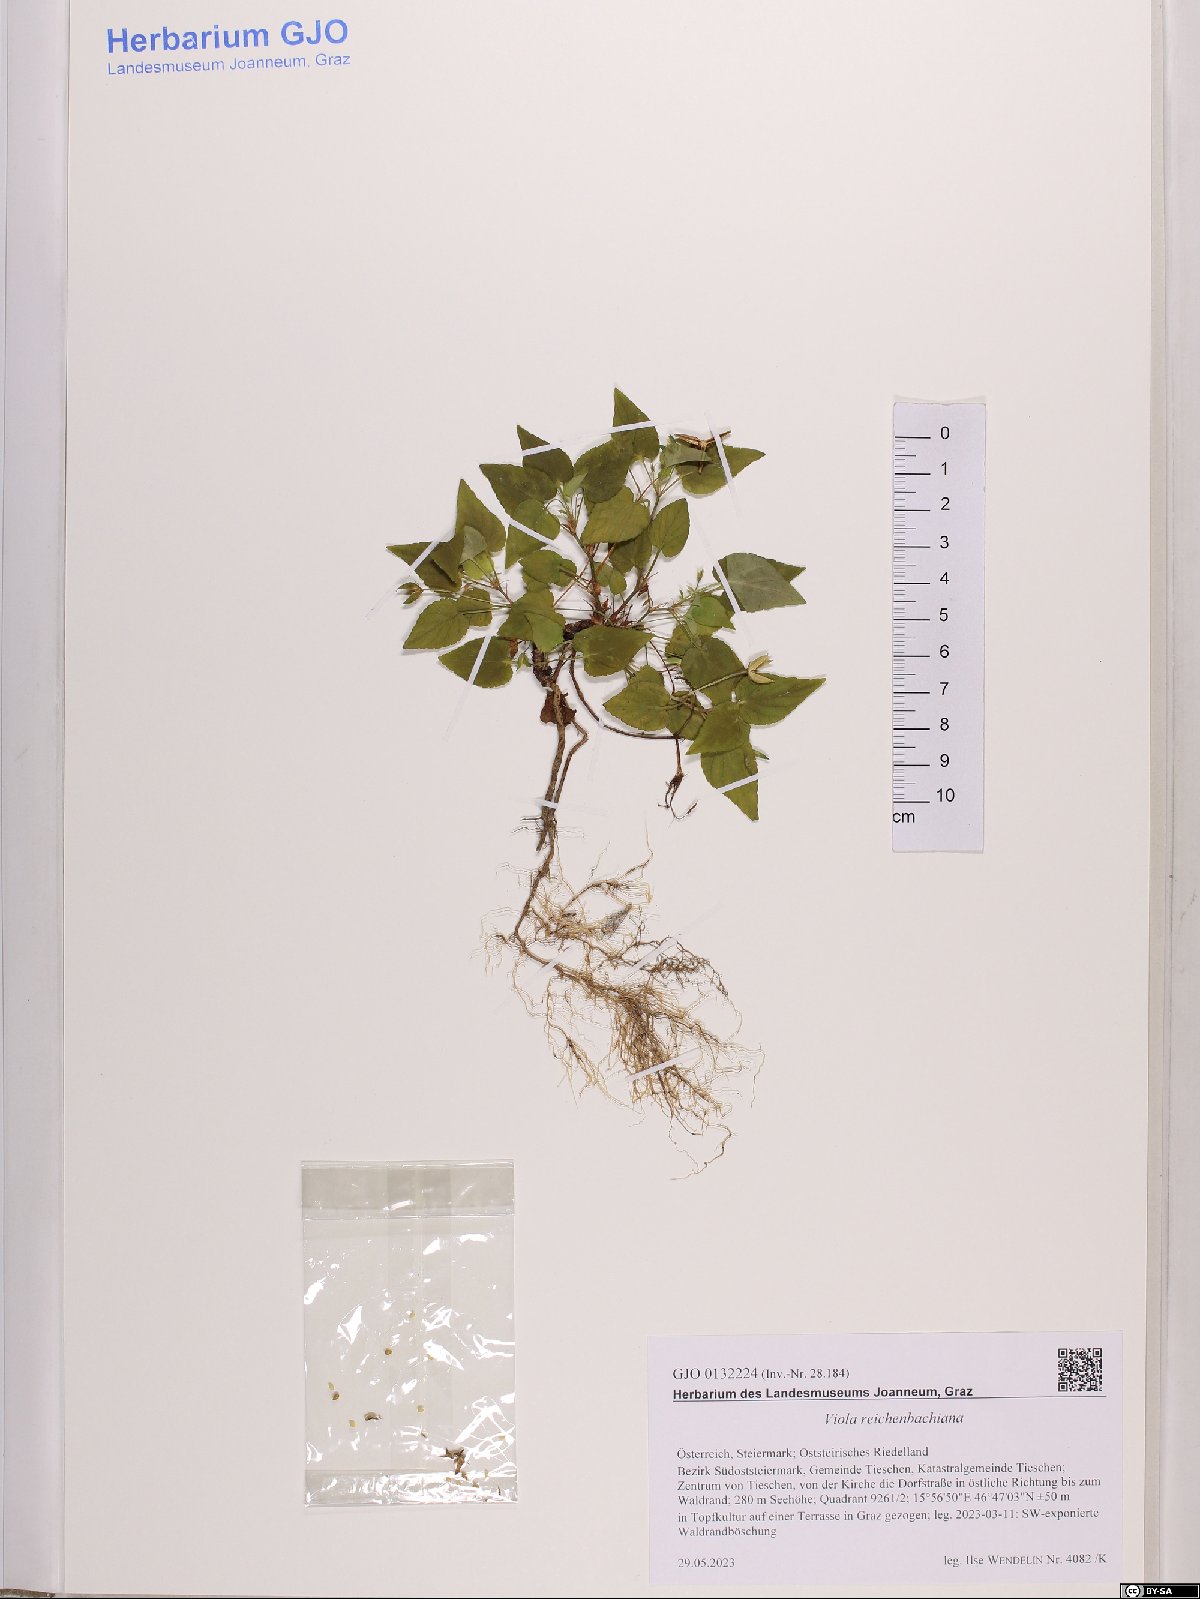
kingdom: Plantae
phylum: Tracheophyta
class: Magnoliopsida
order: Malpighiales
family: Violaceae
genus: Viola
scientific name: Viola reichenbachiana
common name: Early dog-violet
